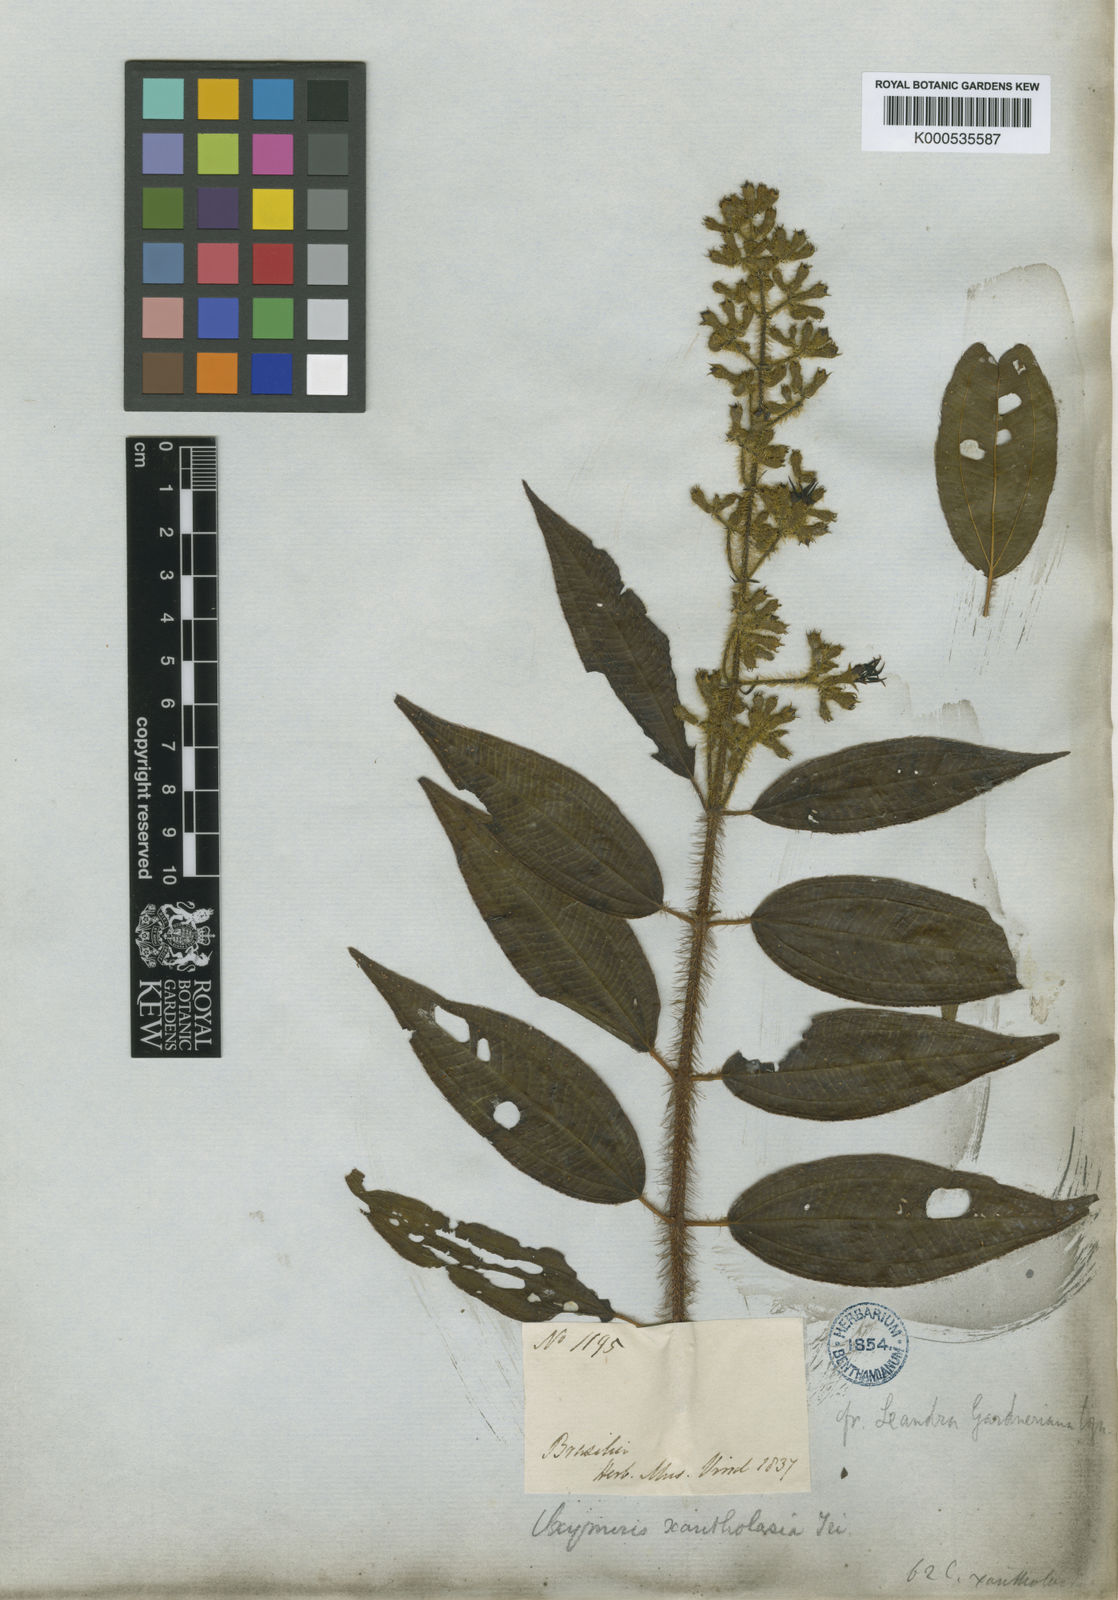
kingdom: Plantae
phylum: Tracheophyta
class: Magnoliopsida
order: Myrtales
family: Melastomataceae
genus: Miconia
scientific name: Miconia xantholasia
